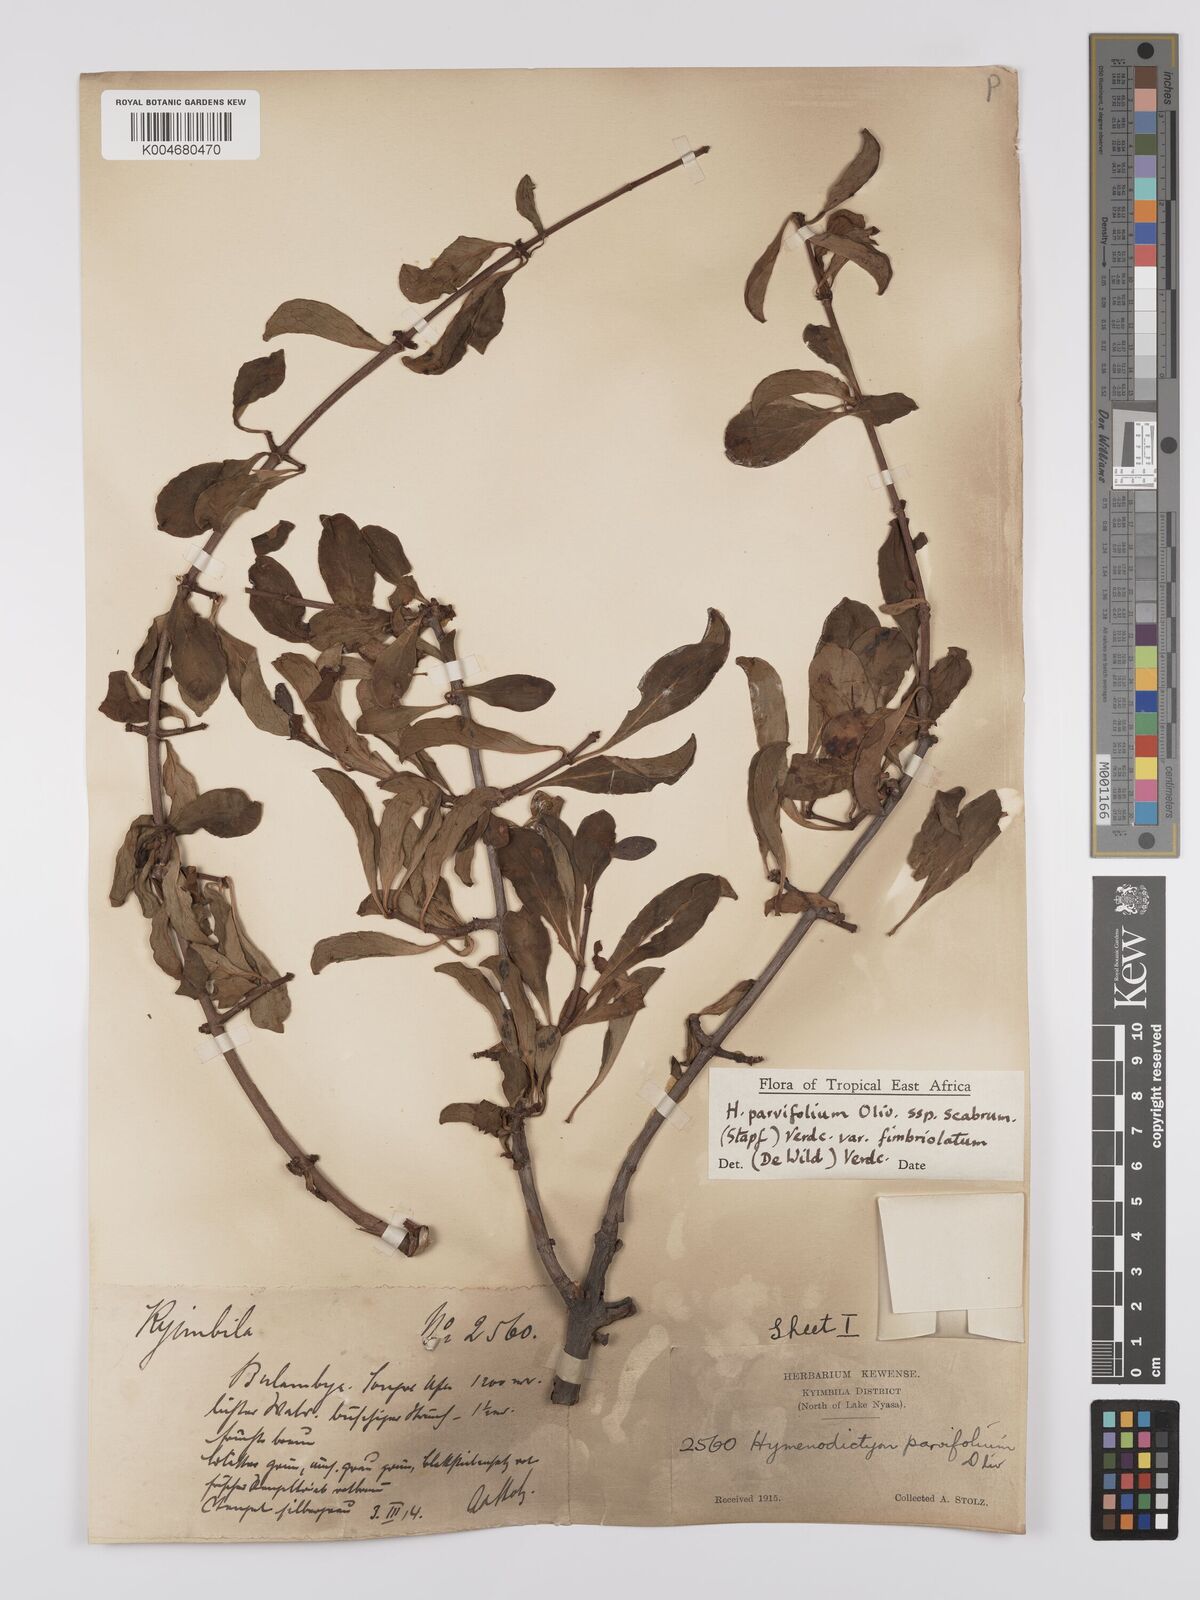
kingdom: Plantae
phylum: Tracheophyta
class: Magnoliopsida
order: Gentianales
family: Rubiaceae
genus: Hymenodictyon
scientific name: Hymenodictyon scabrum
